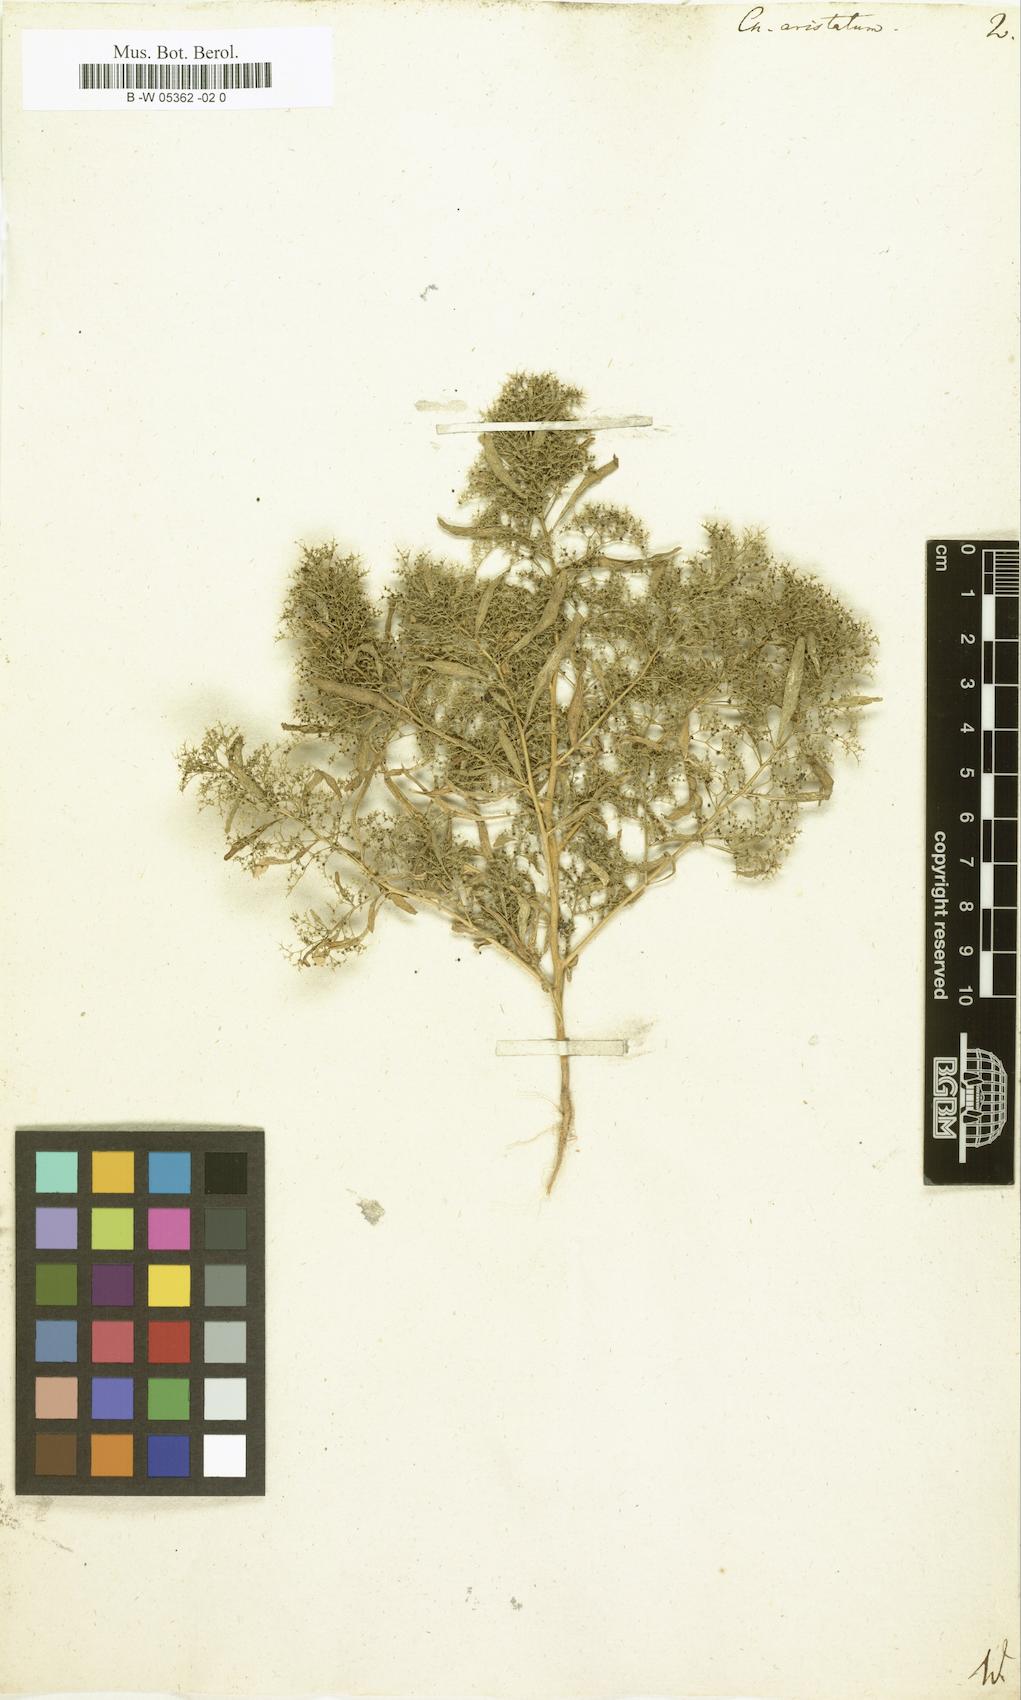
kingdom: Plantae
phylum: Tracheophyta
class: Magnoliopsida
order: Caryophyllales
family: Amaranthaceae
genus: Teloxys
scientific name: Teloxys aristata
